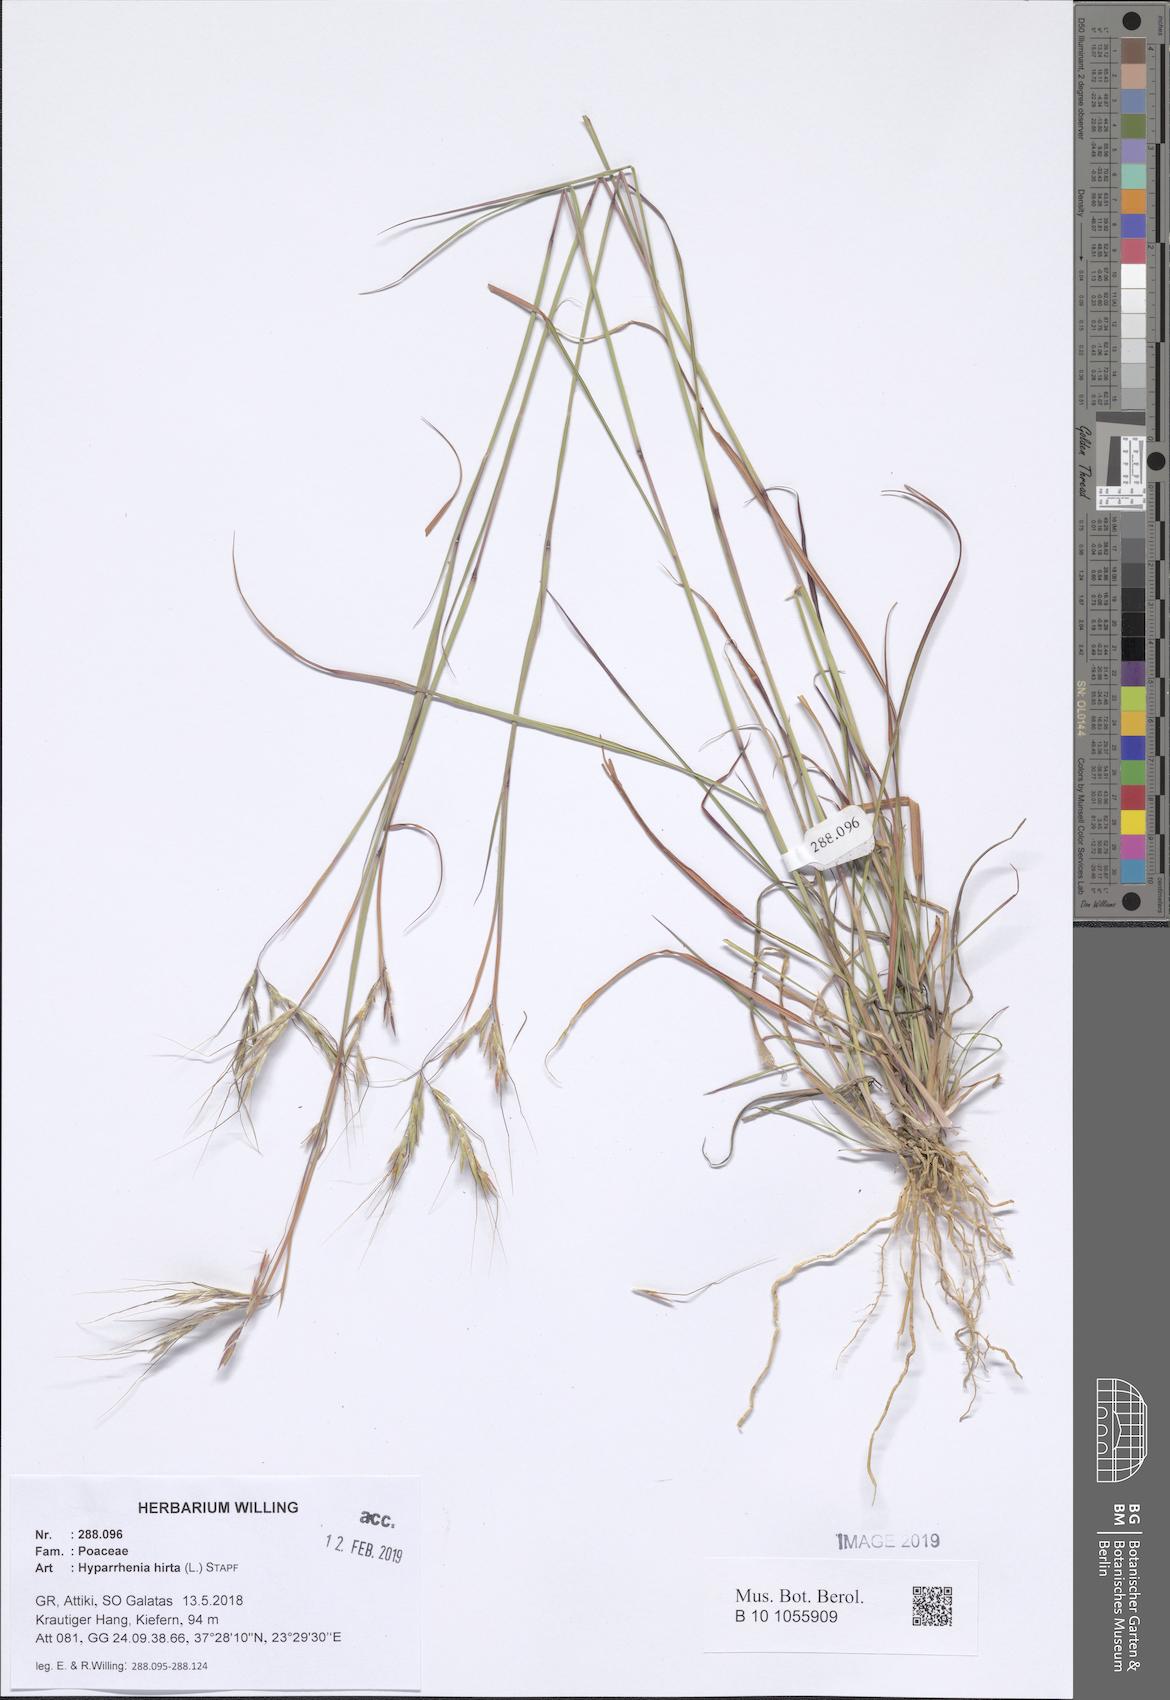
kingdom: Plantae
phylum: Tracheophyta
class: Liliopsida
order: Poales
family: Poaceae
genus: Hyparrhenia
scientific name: Hyparrhenia hirta
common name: Thatching grass
